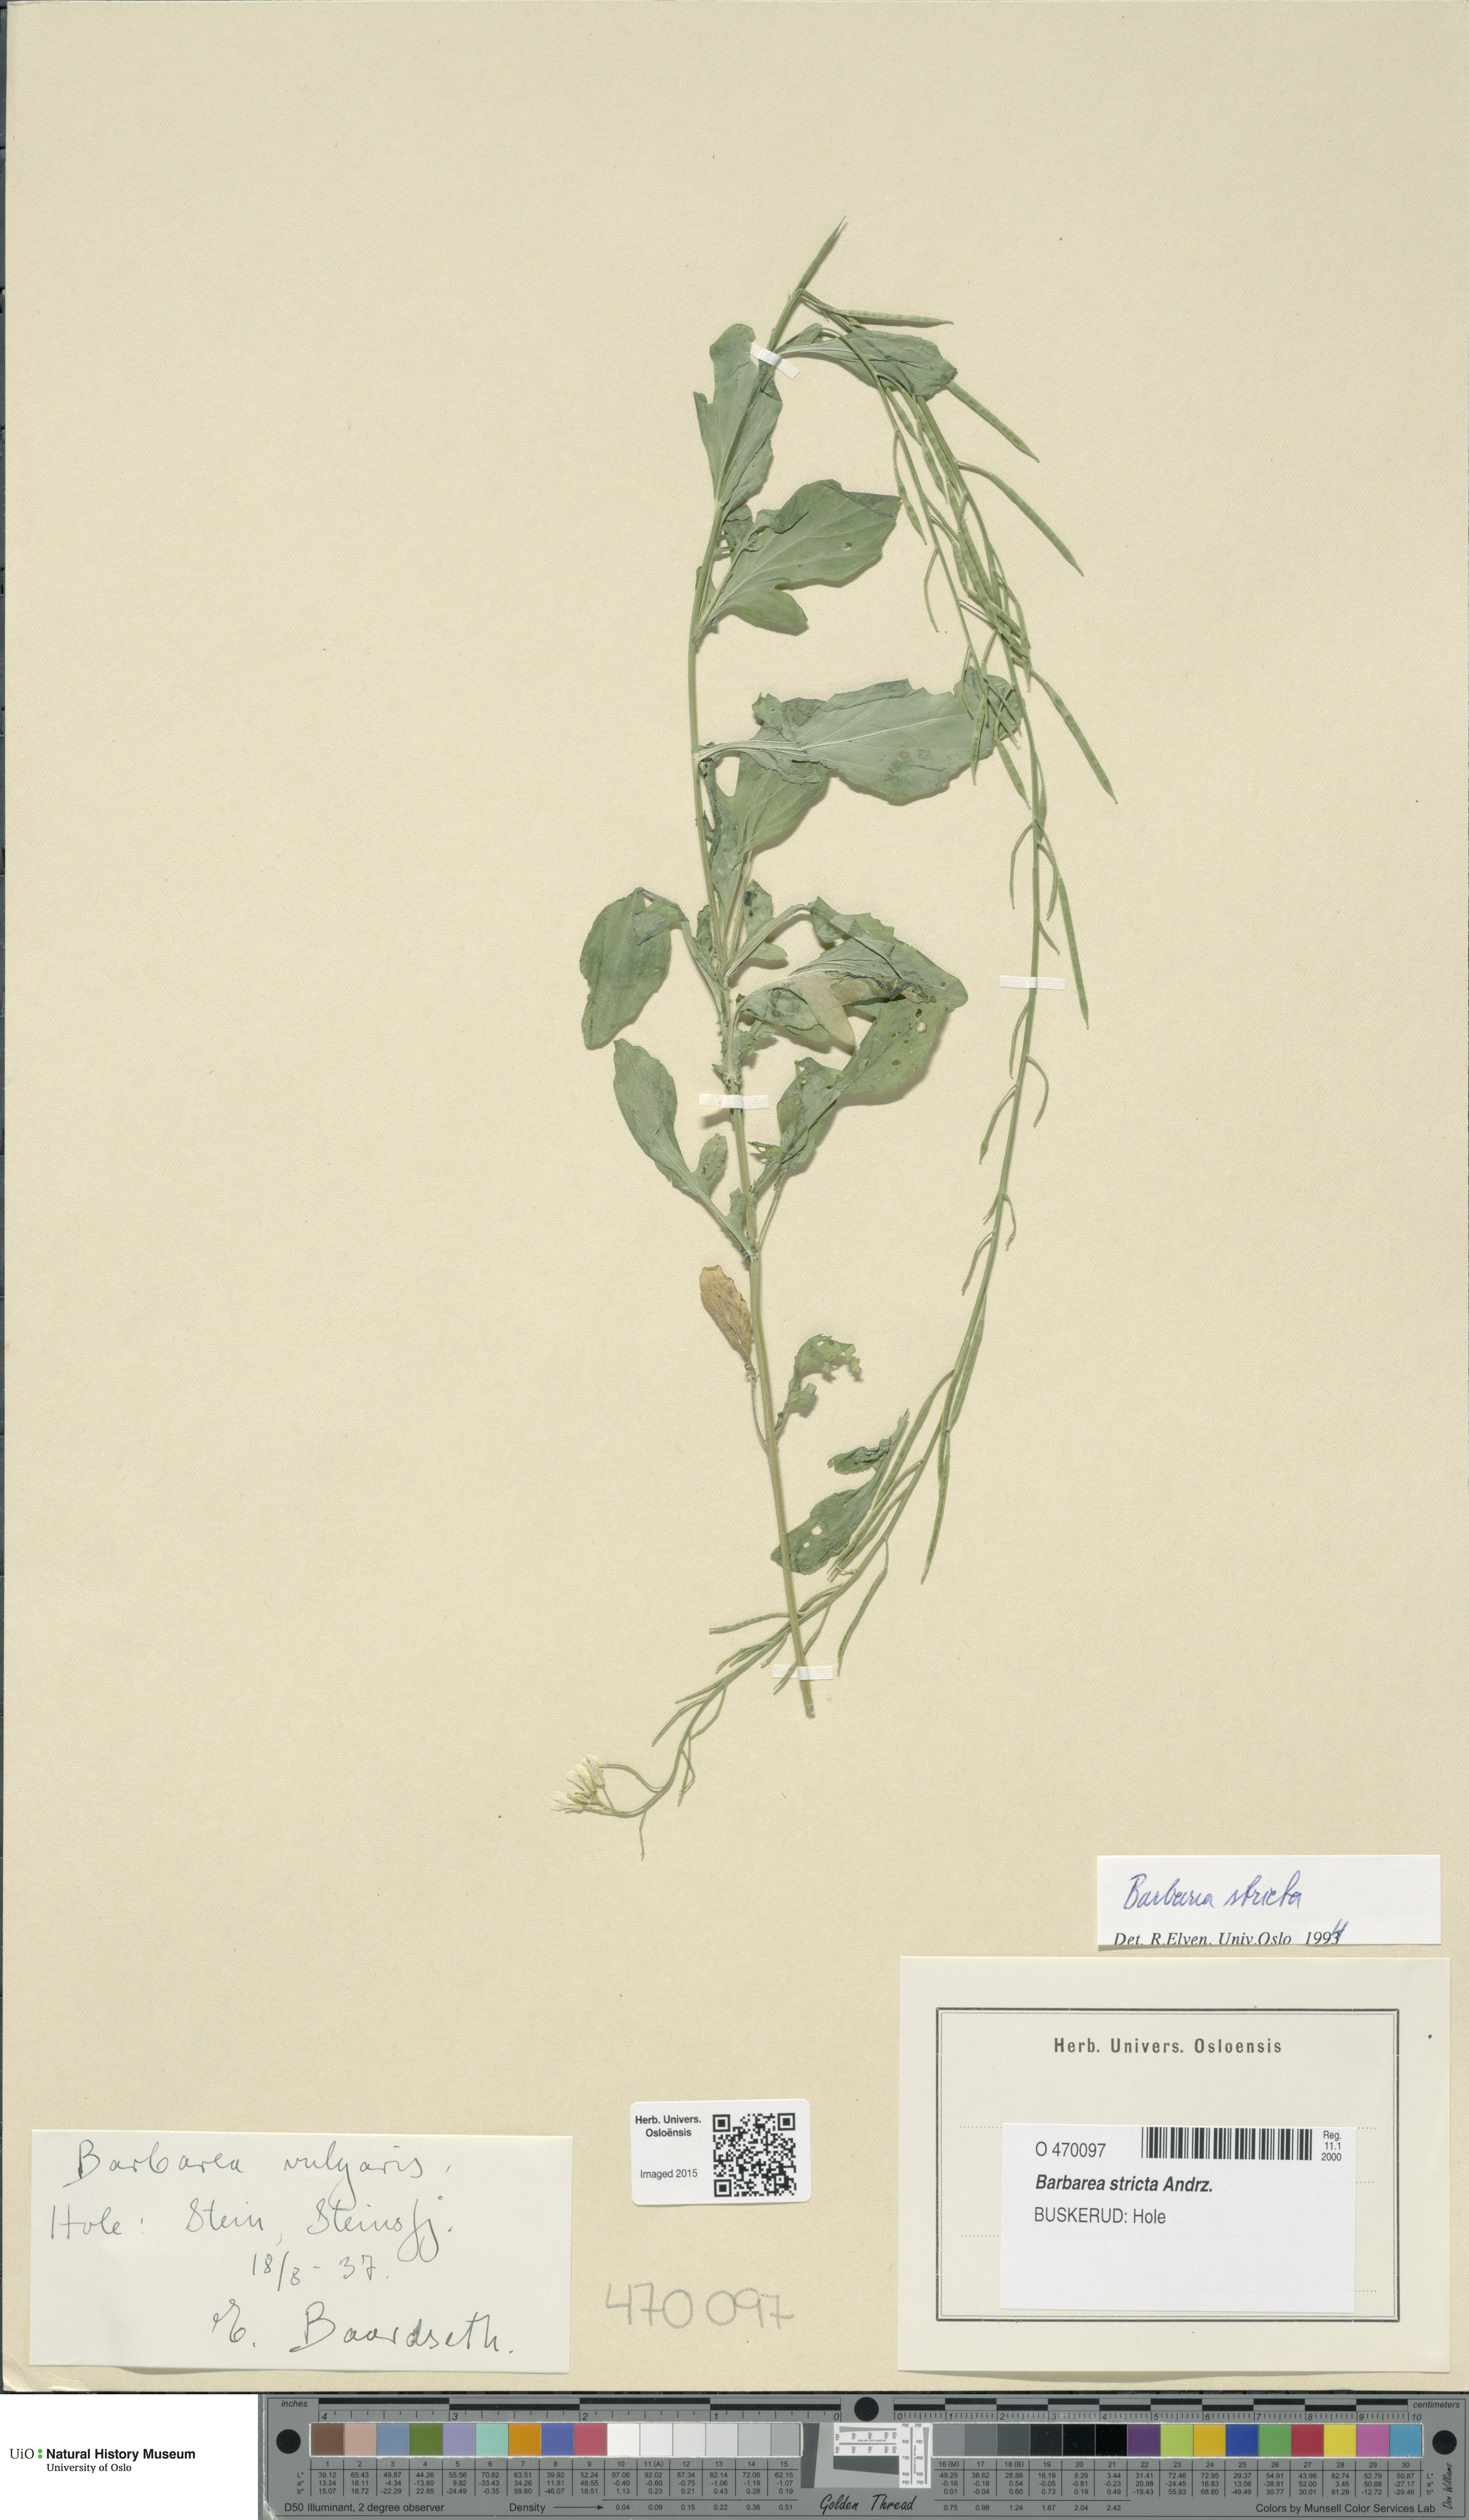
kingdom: Plantae
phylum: Tracheophyta
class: Magnoliopsida
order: Brassicales
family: Brassicaceae
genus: Barbarea
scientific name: Barbarea stricta
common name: Small-flowered winter-cress
